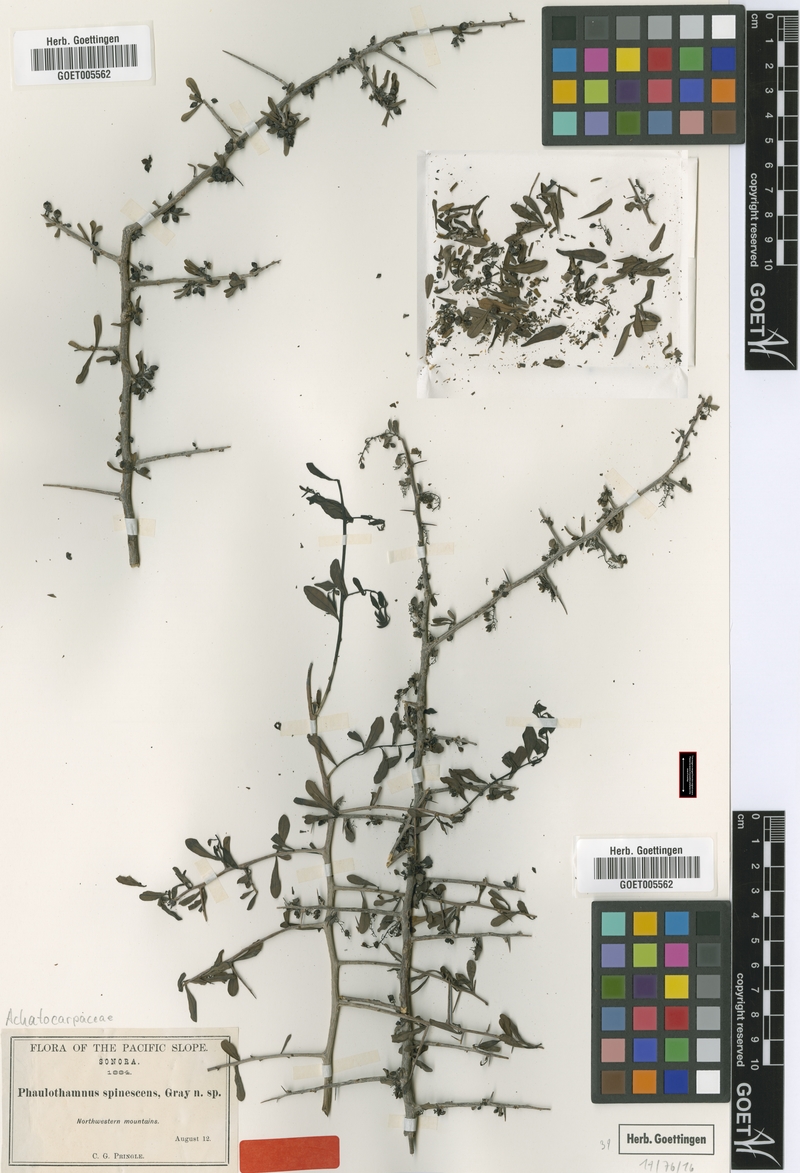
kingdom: Plantae
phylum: Tracheophyta
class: Magnoliopsida
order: Caryophyllales
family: Achatocarpaceae
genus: Phaulothamnus
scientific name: Phaulothamnus spinescens
